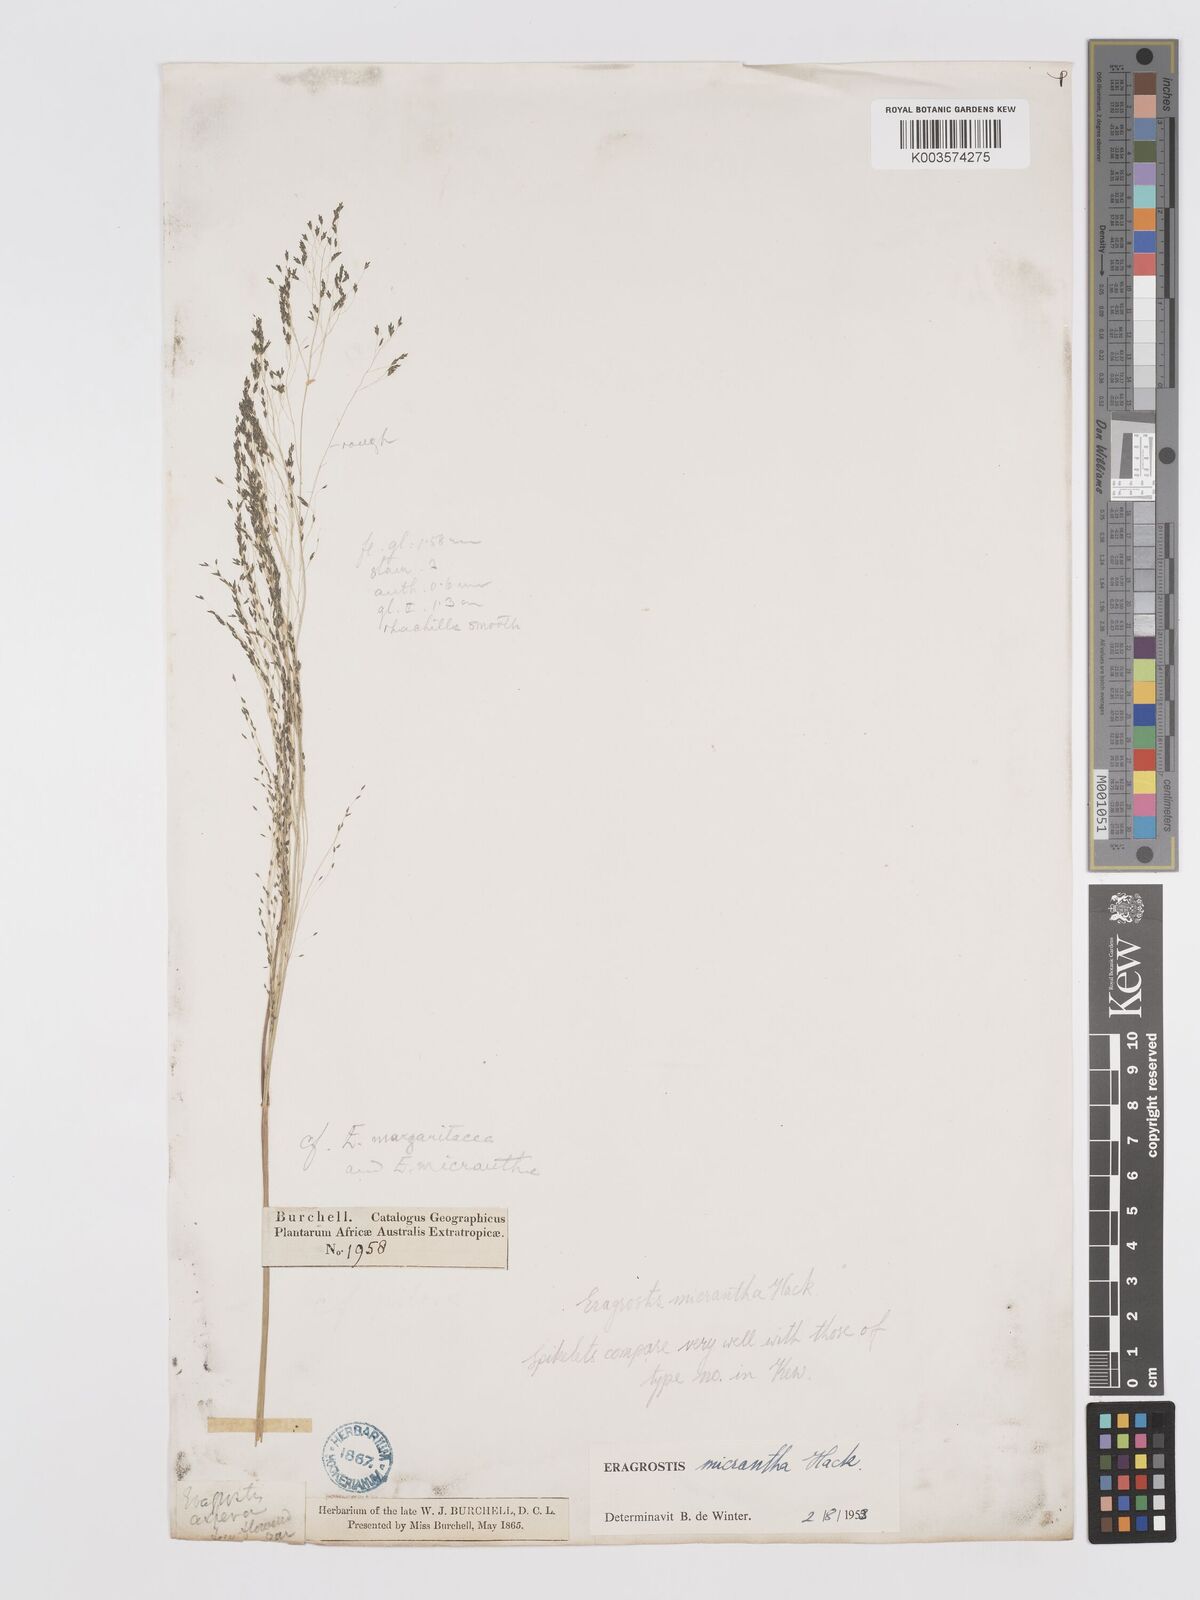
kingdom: Plantae
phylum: Tracheophyta
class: Liliopsida
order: Poales
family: Poaceae
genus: Eragrostis
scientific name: Eragrostis micrantha
